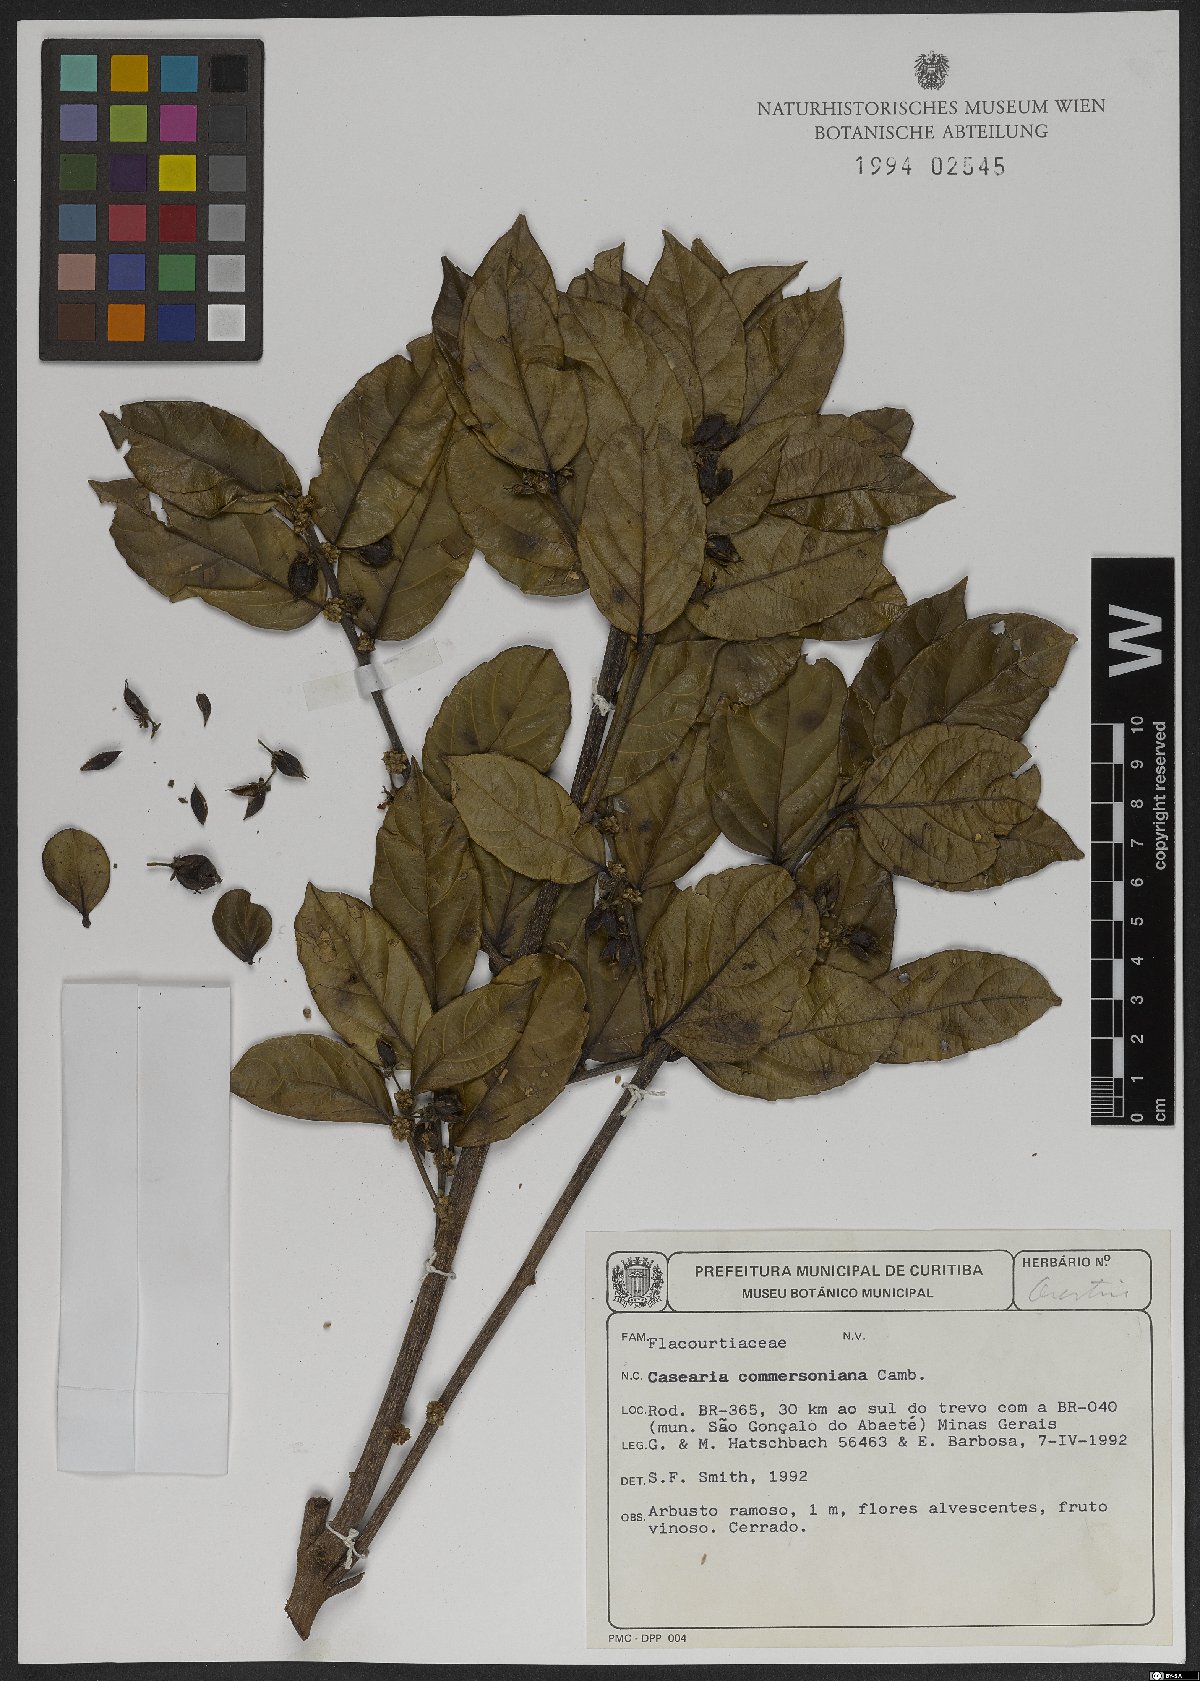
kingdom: Plantae
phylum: Tracheophyta
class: Magnoliopsida
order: Malpighiales
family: Salicaceae
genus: Piparea
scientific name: Piparea dentata
